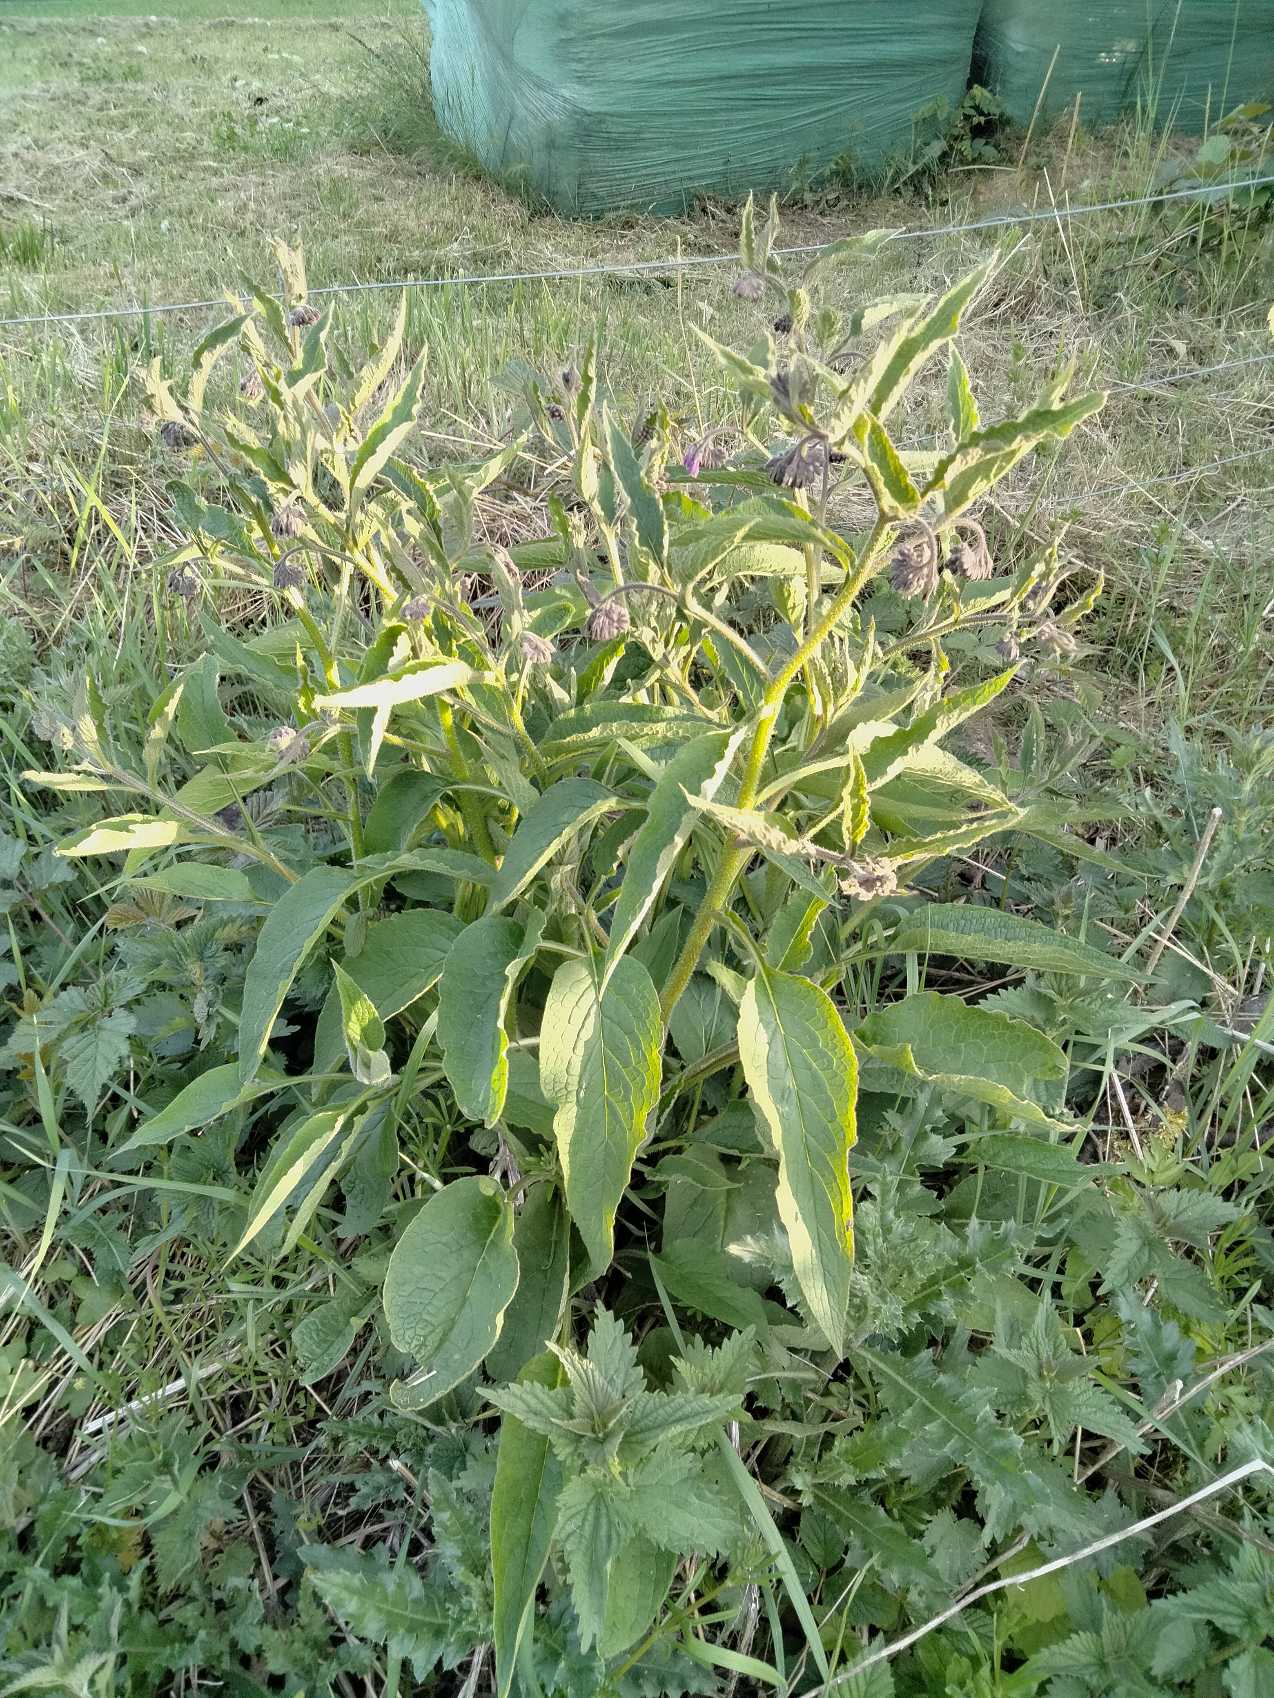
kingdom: Plantae
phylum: Tracheophyta
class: Magnoliopsida
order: Boraginales
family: Boraginaceae
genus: Symphytum
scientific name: Symphytum uplandicum
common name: Foder-kulsukker
